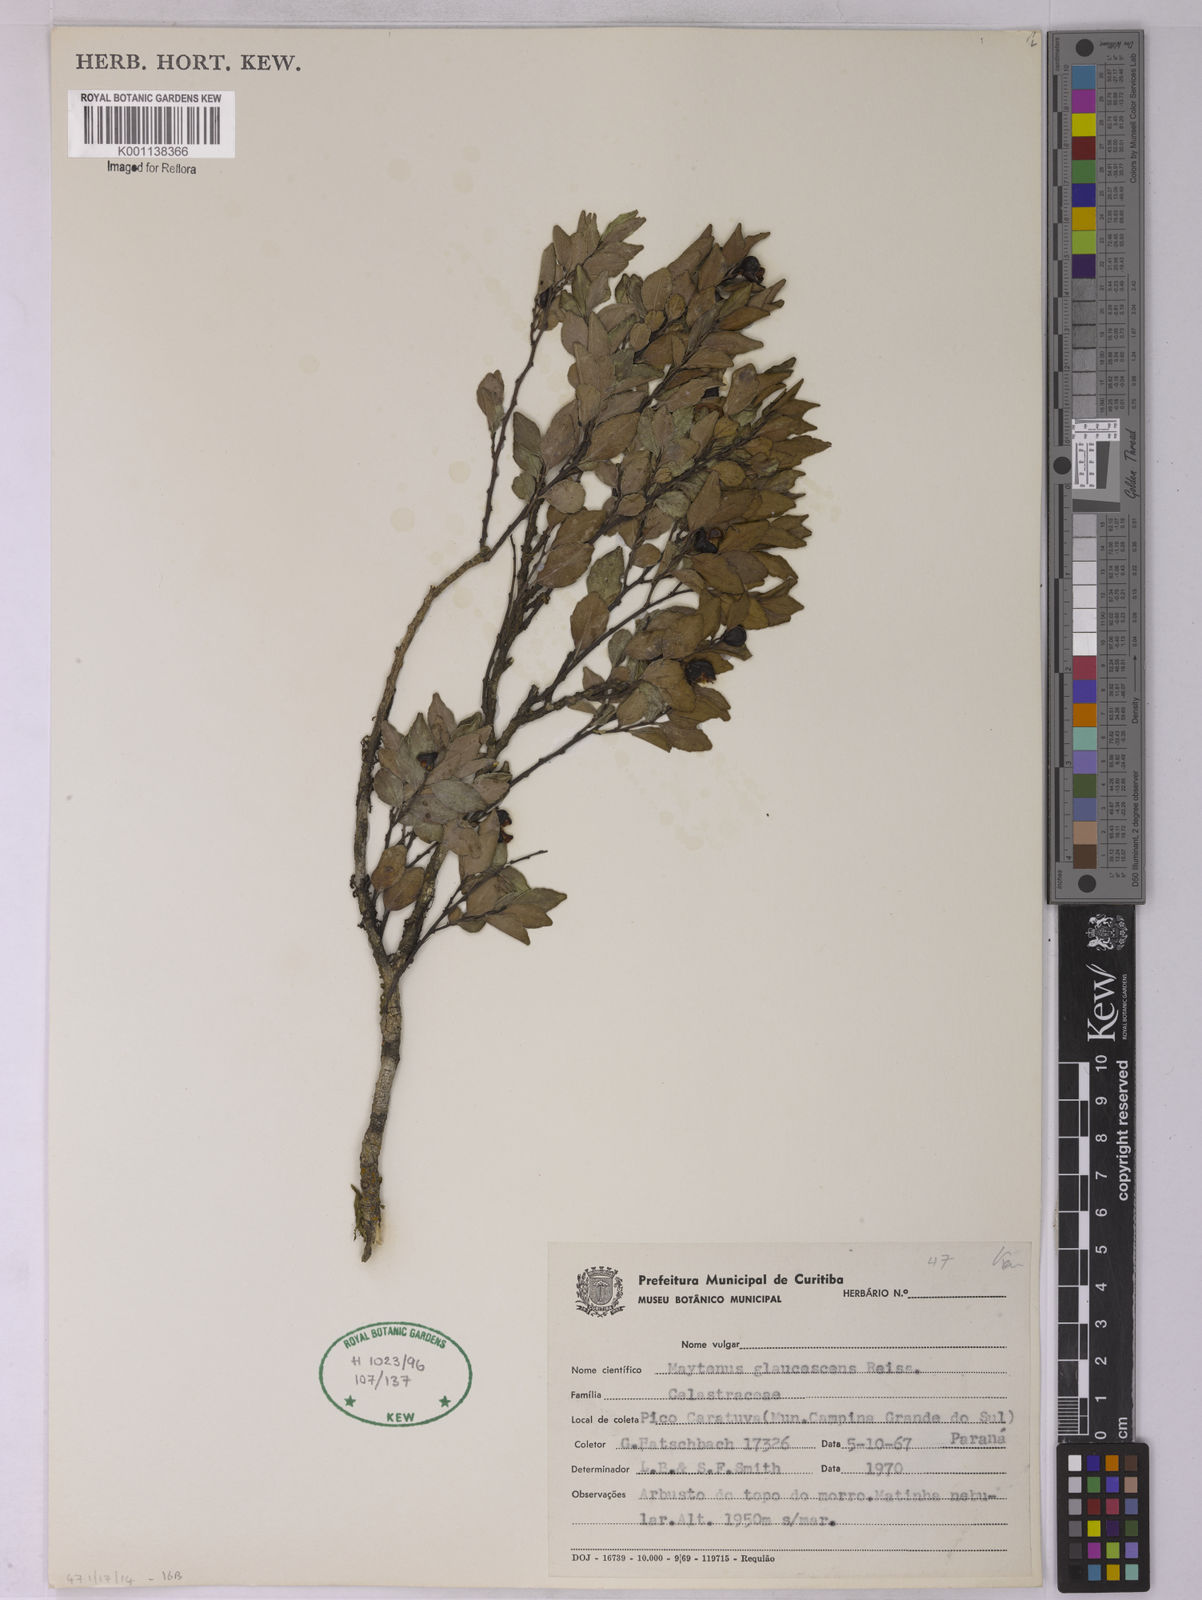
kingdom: Plantae
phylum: Tracheophyta
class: Magnoliopsida
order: Celastrales
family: Celastraceae
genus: Monteverdia
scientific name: Monteverdia glaucescens
